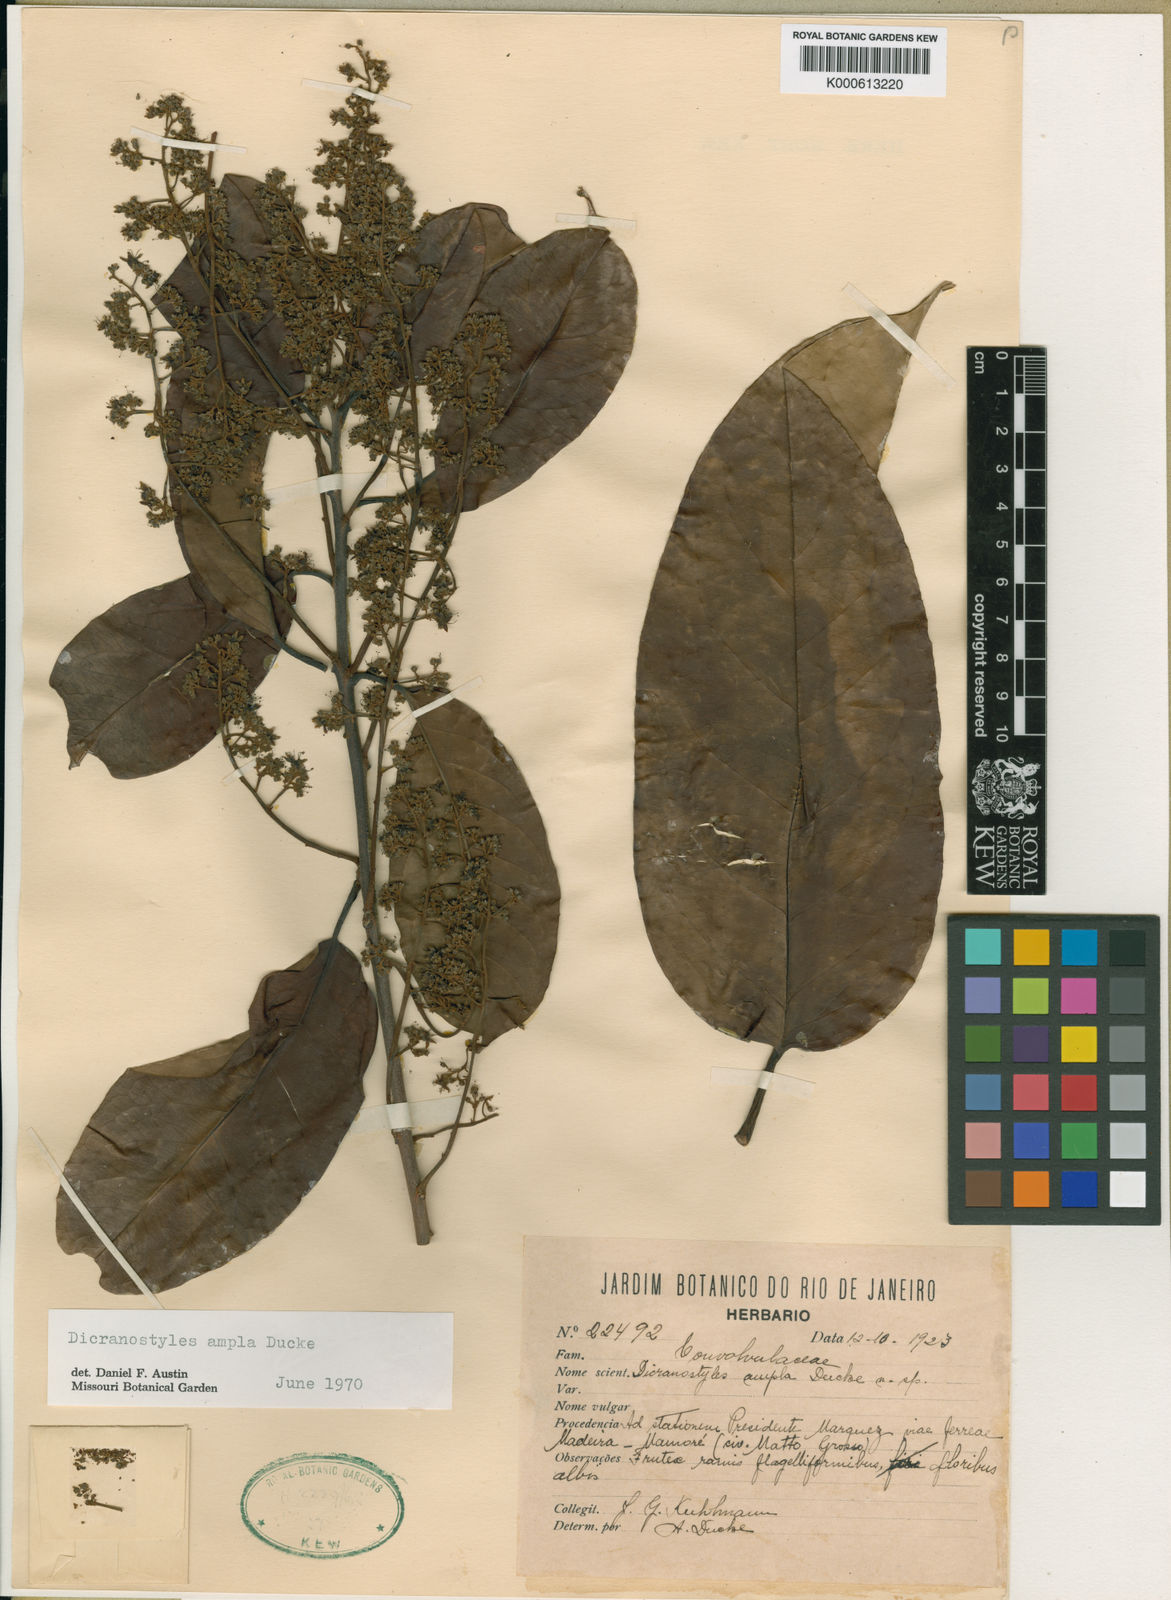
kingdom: Plantae
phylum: Tracheophyta
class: Magnoliopsida
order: Solanales
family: Convolvulaceae
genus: Dicranostyles
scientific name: Dicranostyles ampla
